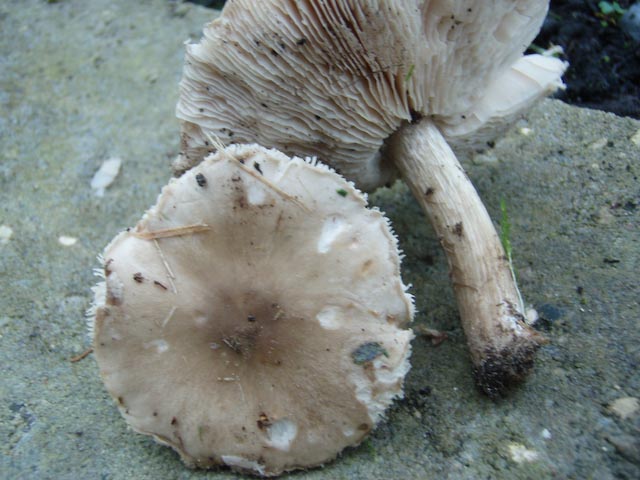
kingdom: Fungi
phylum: Basidiomycota
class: Agaricomycetes
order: Agaricales
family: Tricholomataceae
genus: Melanoleuca
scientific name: Melanoleuca
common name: munkehat
